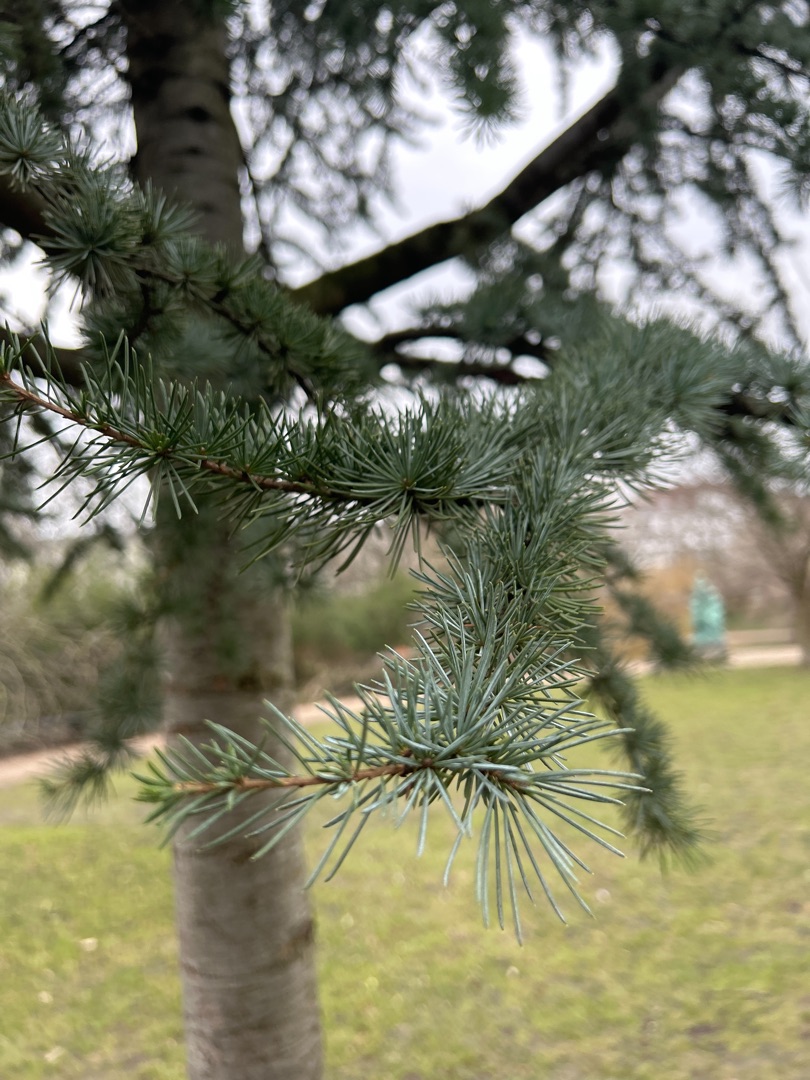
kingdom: Plantae
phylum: Tracheophyta
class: Pinopsida
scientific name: Pinopsida
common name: Nåletræer
